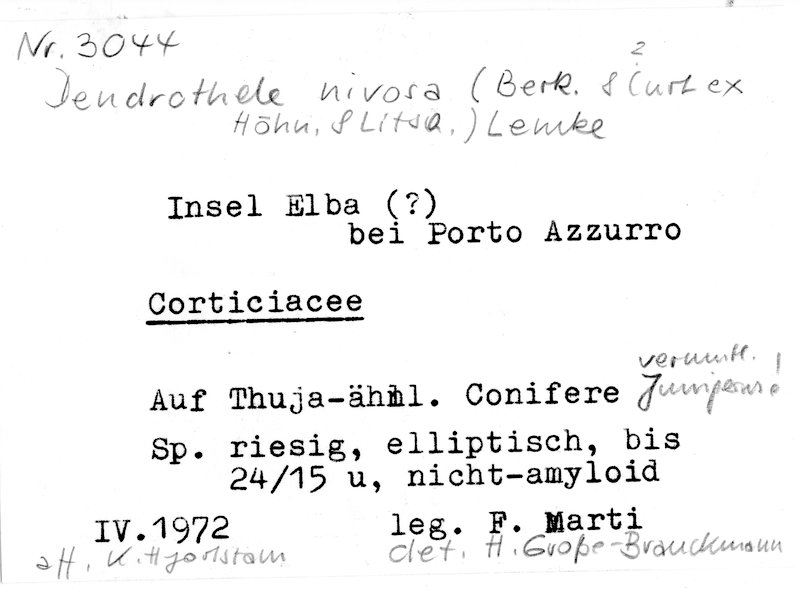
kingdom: Plantae
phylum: Tracheophyta
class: Pinopsida
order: Pinales
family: Cupressaceae
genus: Juniperus
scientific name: Juniperus
